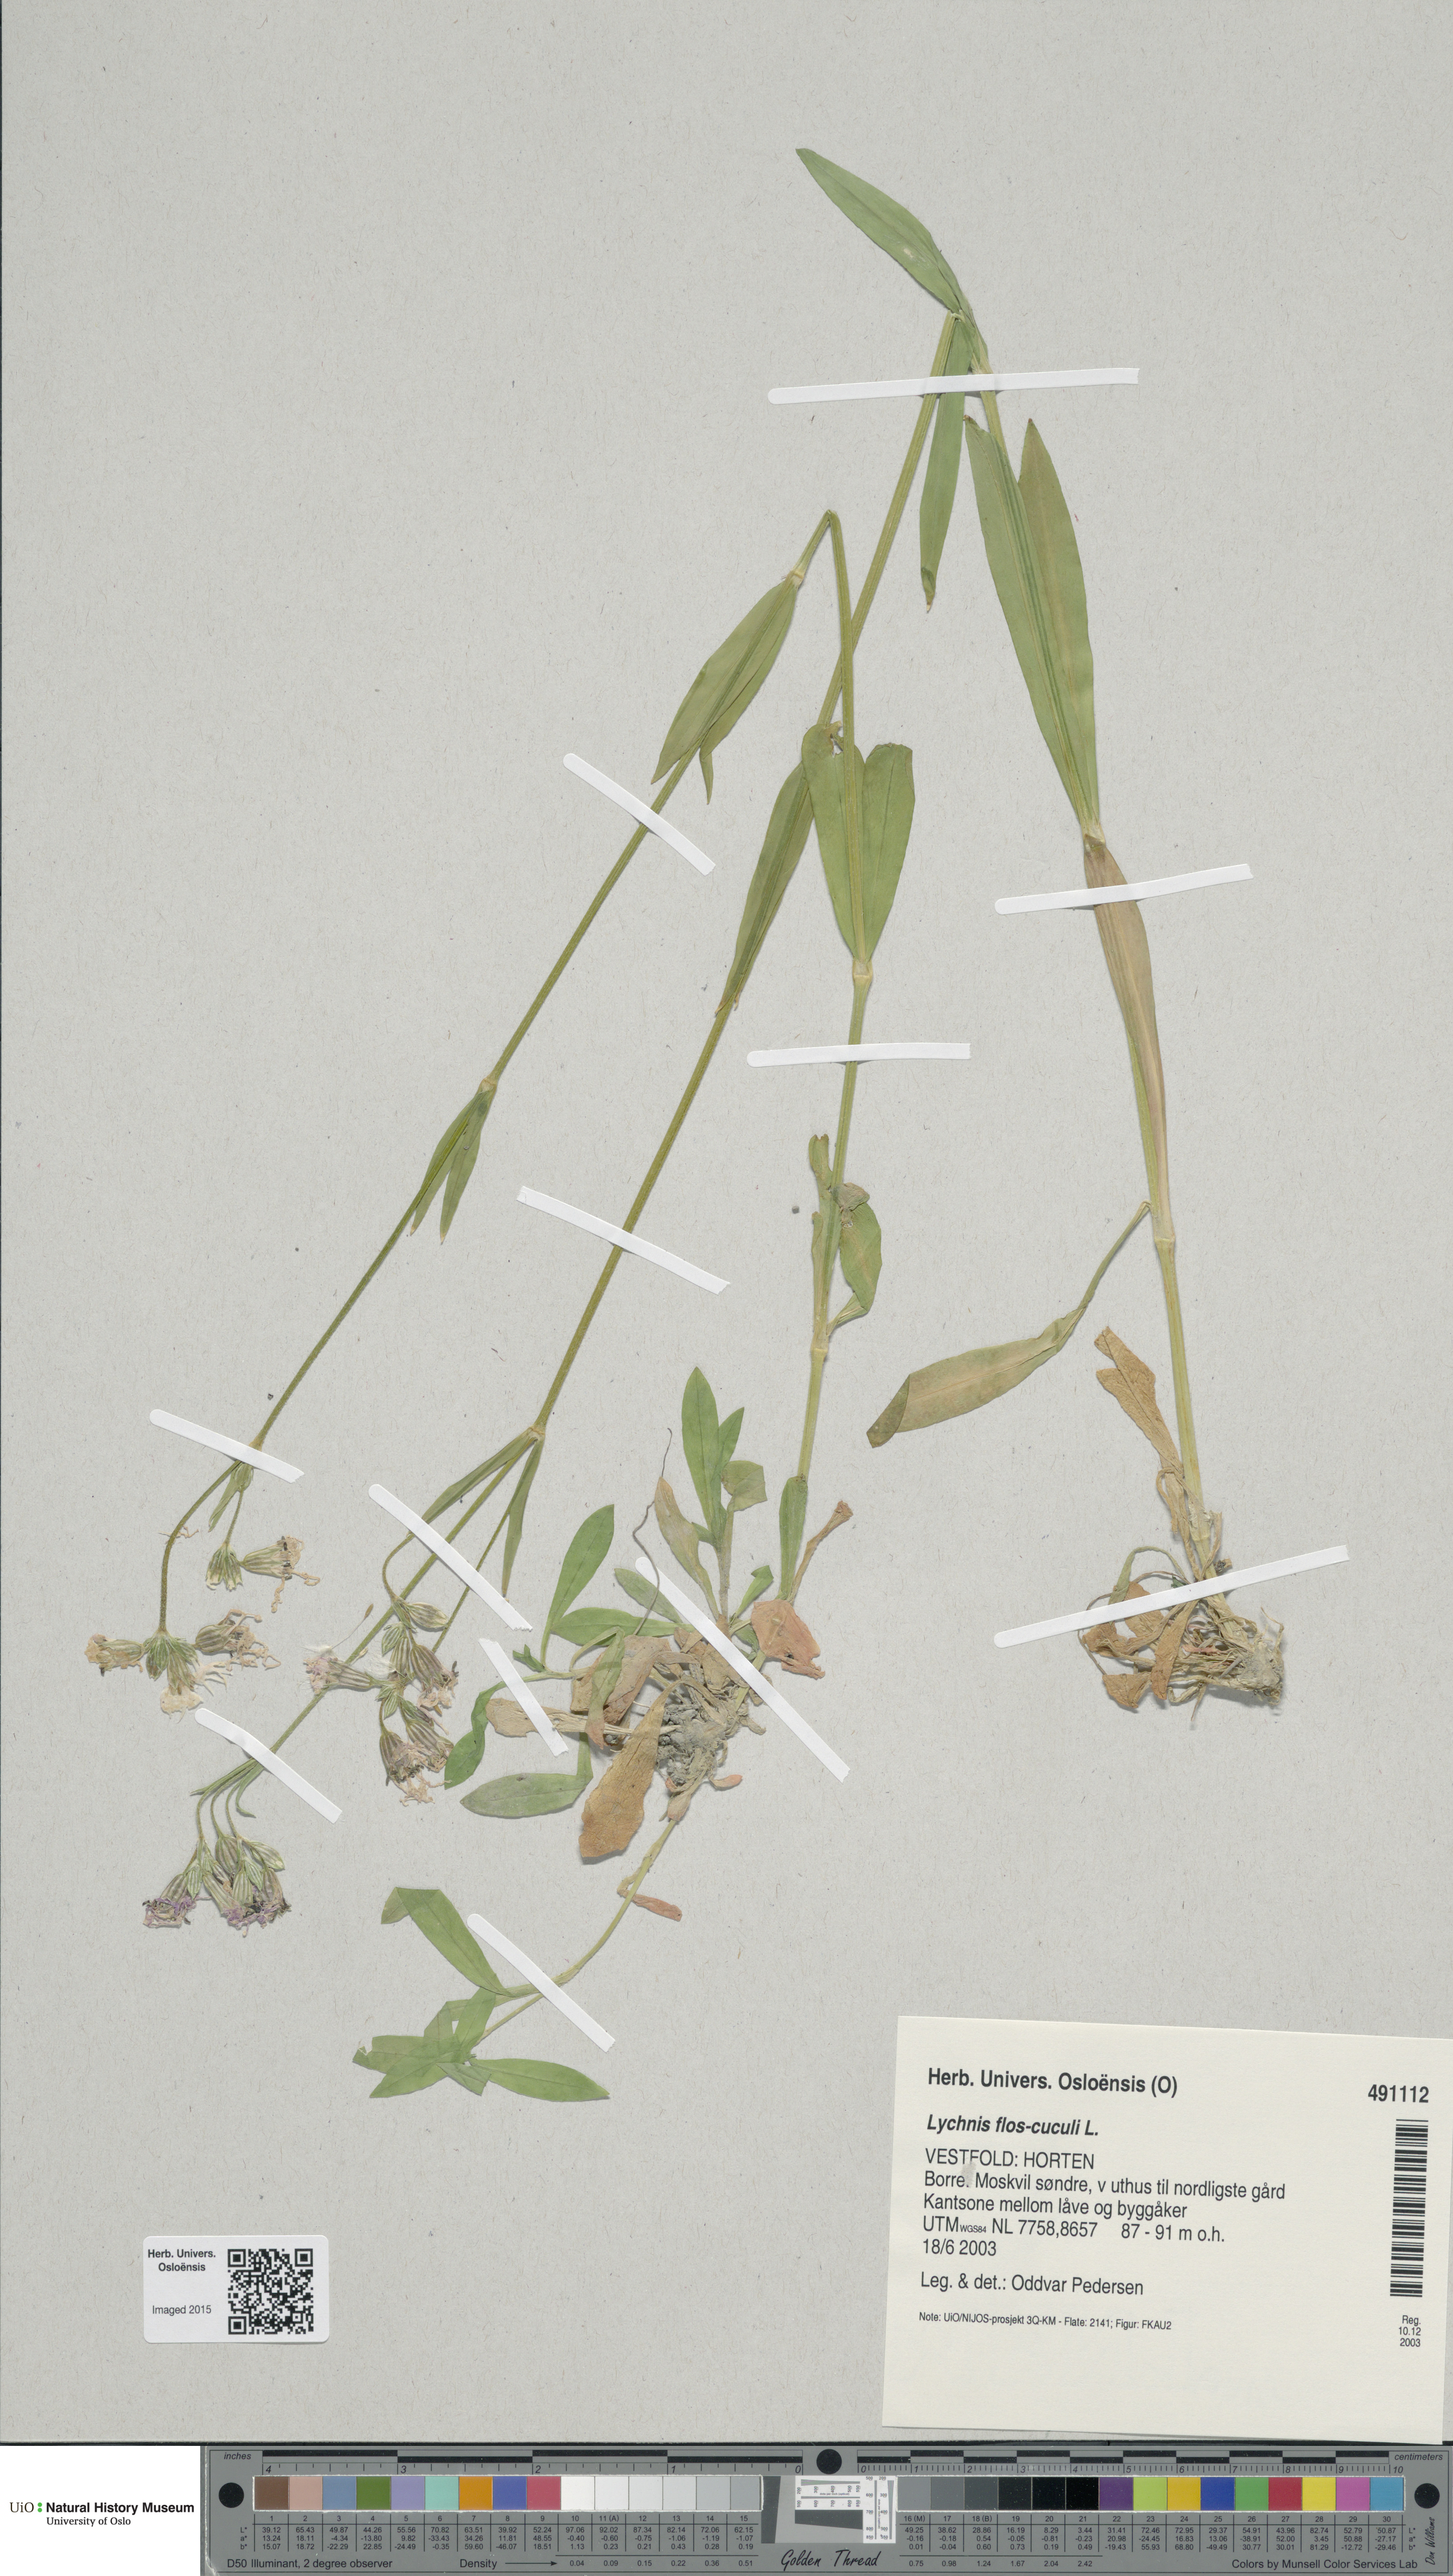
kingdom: Plantae
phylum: Tracheophyta
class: Magnoliopsida
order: Caryophyllales
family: Caryophyllaceae
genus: Silene
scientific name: Silene flos-cuculi
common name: Ragged-robin
